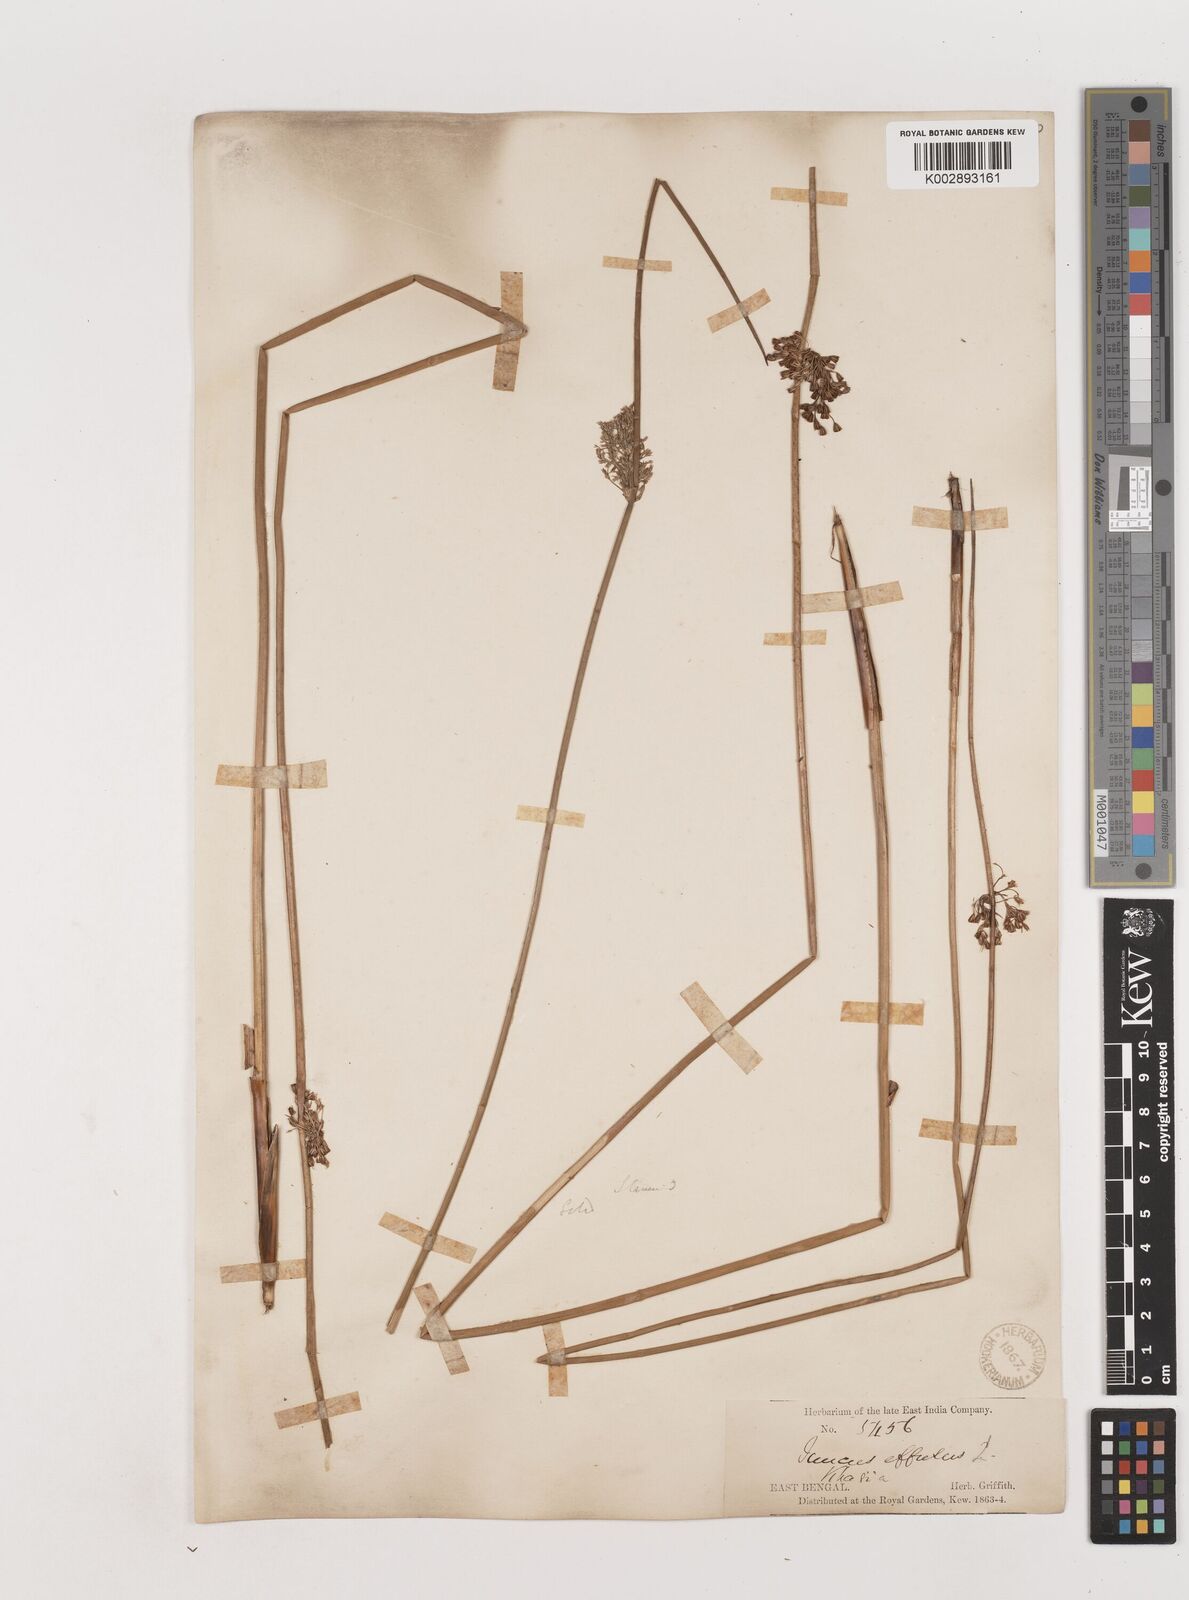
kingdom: Plantae
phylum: Tracheophyta
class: Liliopsida
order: Poales
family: Juncaceae
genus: Juncus
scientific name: Juncus effusus
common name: Soft rush
